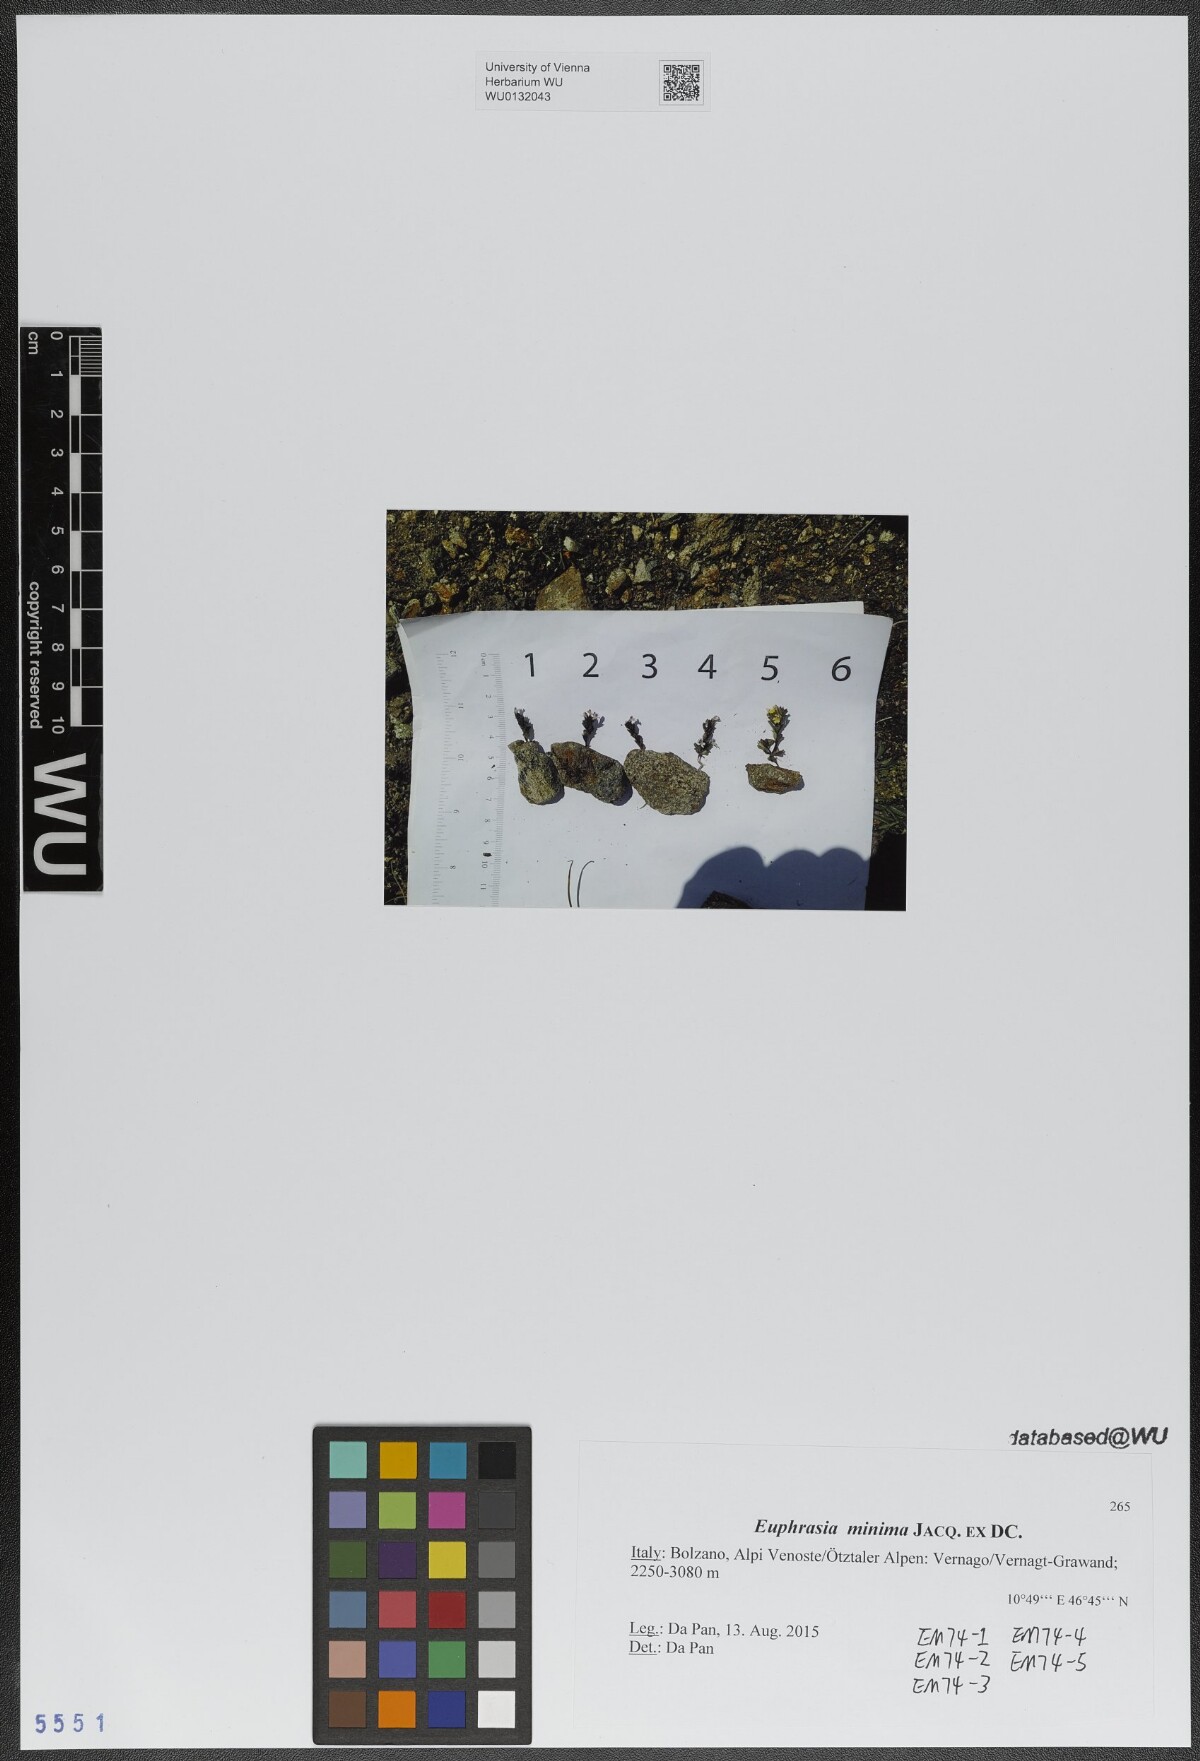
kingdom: Plantae
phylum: Tracheophyta
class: Magnoliopsida
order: Lamiales
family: Orobanchaceae
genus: Euphrasia
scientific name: Euphrasia minima
